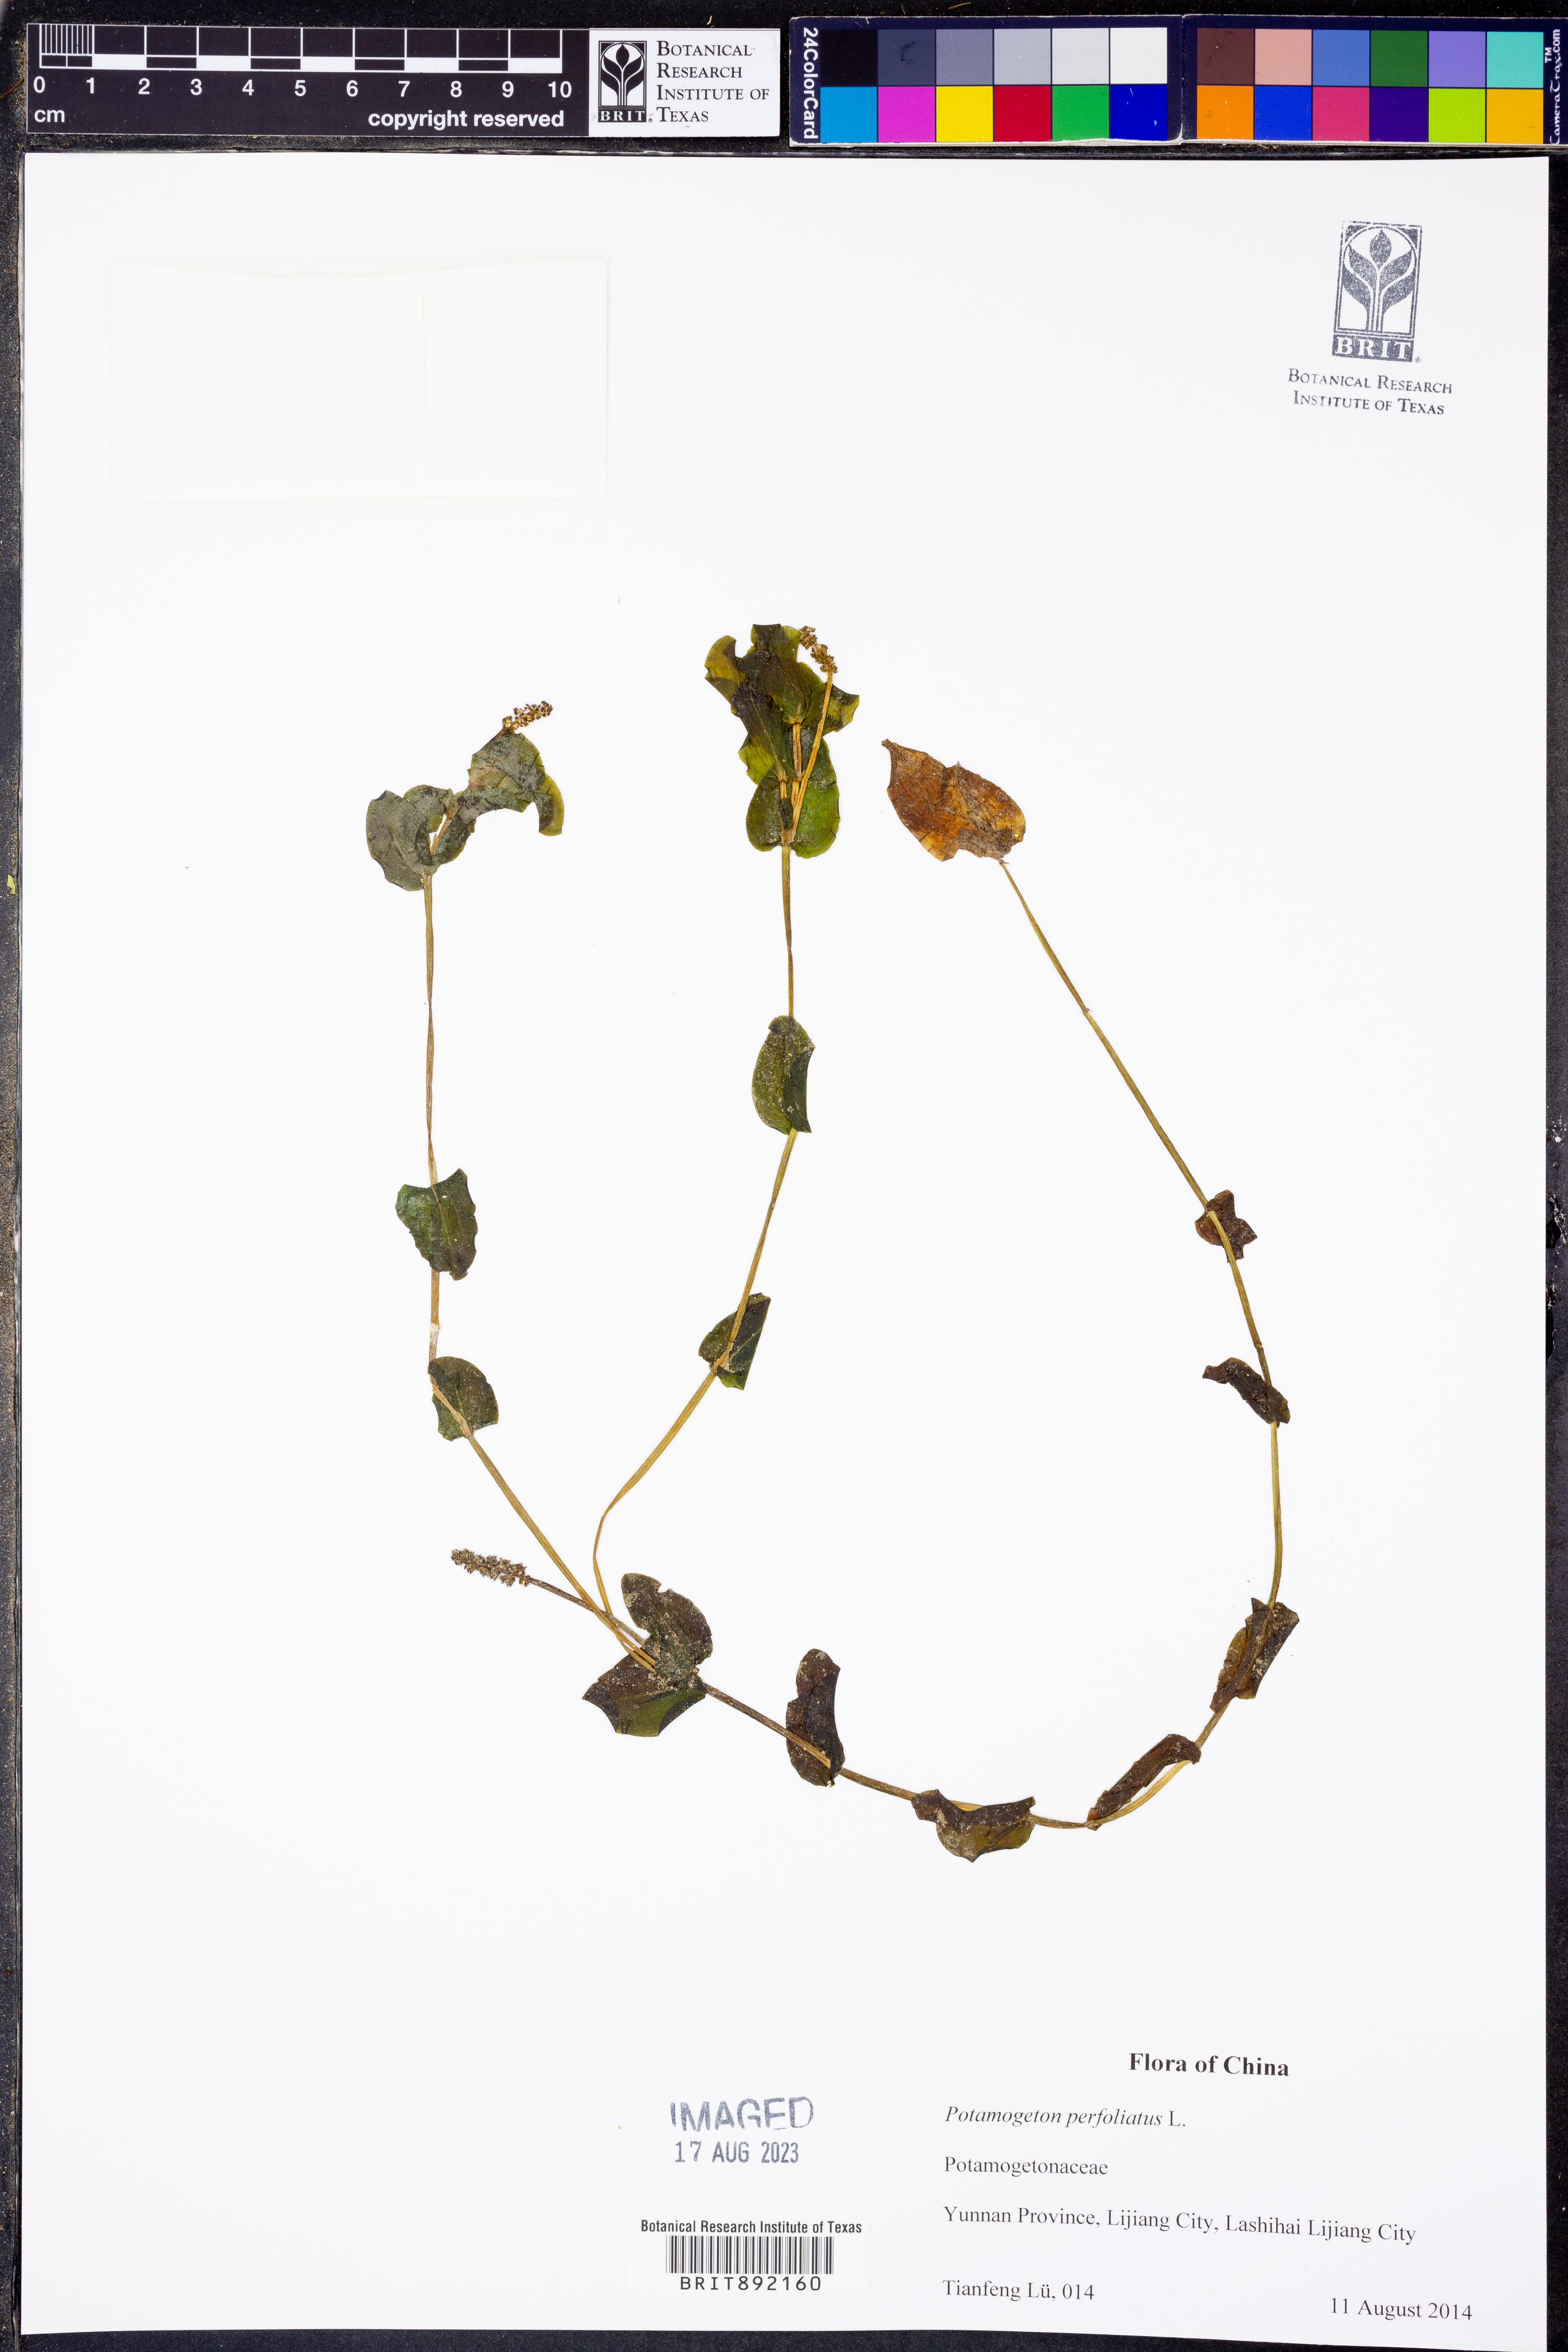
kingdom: Plantae
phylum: Tracheophyta
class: Liliopsida
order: Alismatales
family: Potamogetonaceae
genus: Potamogeton
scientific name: Potamogeton perfoliatus
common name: Perfoliate pondweed
